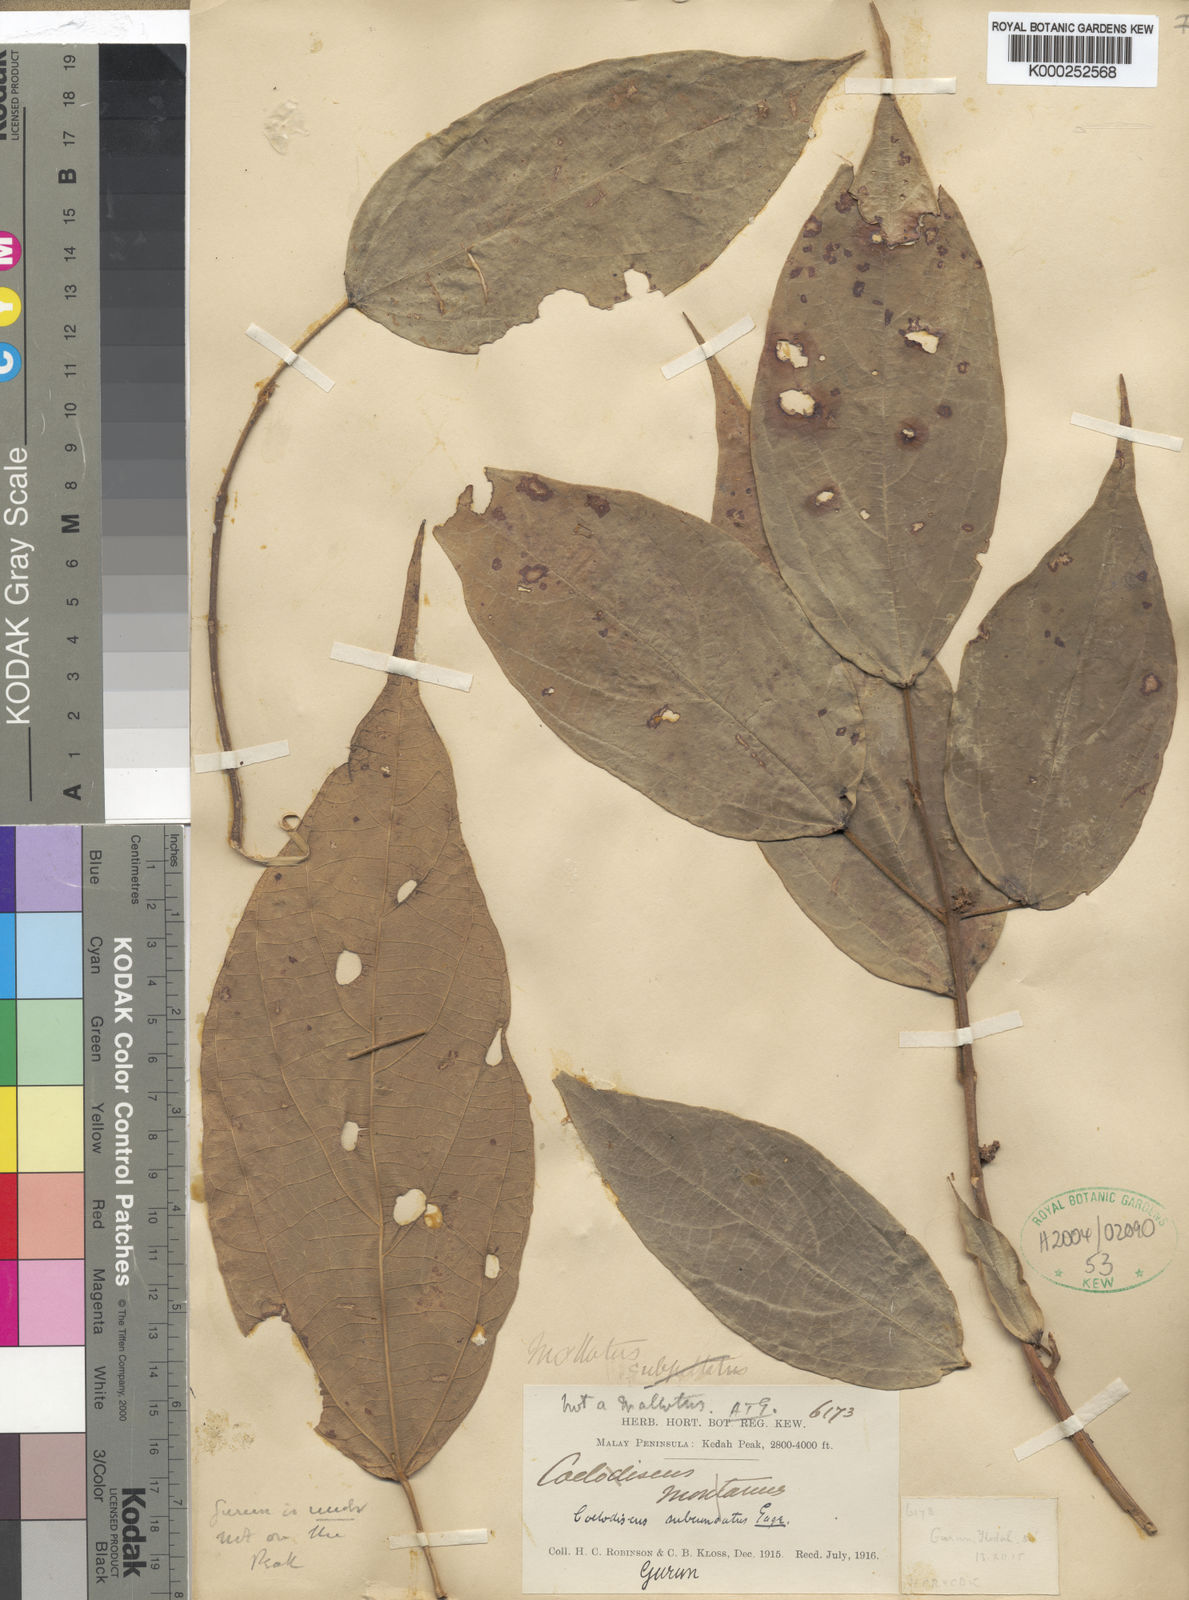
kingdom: Plantae
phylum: Tracheophyta
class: Magnoliopsida
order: Malpighiales
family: Euphorbiaceae
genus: Mallotus
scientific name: Mallotus subcuneatus
